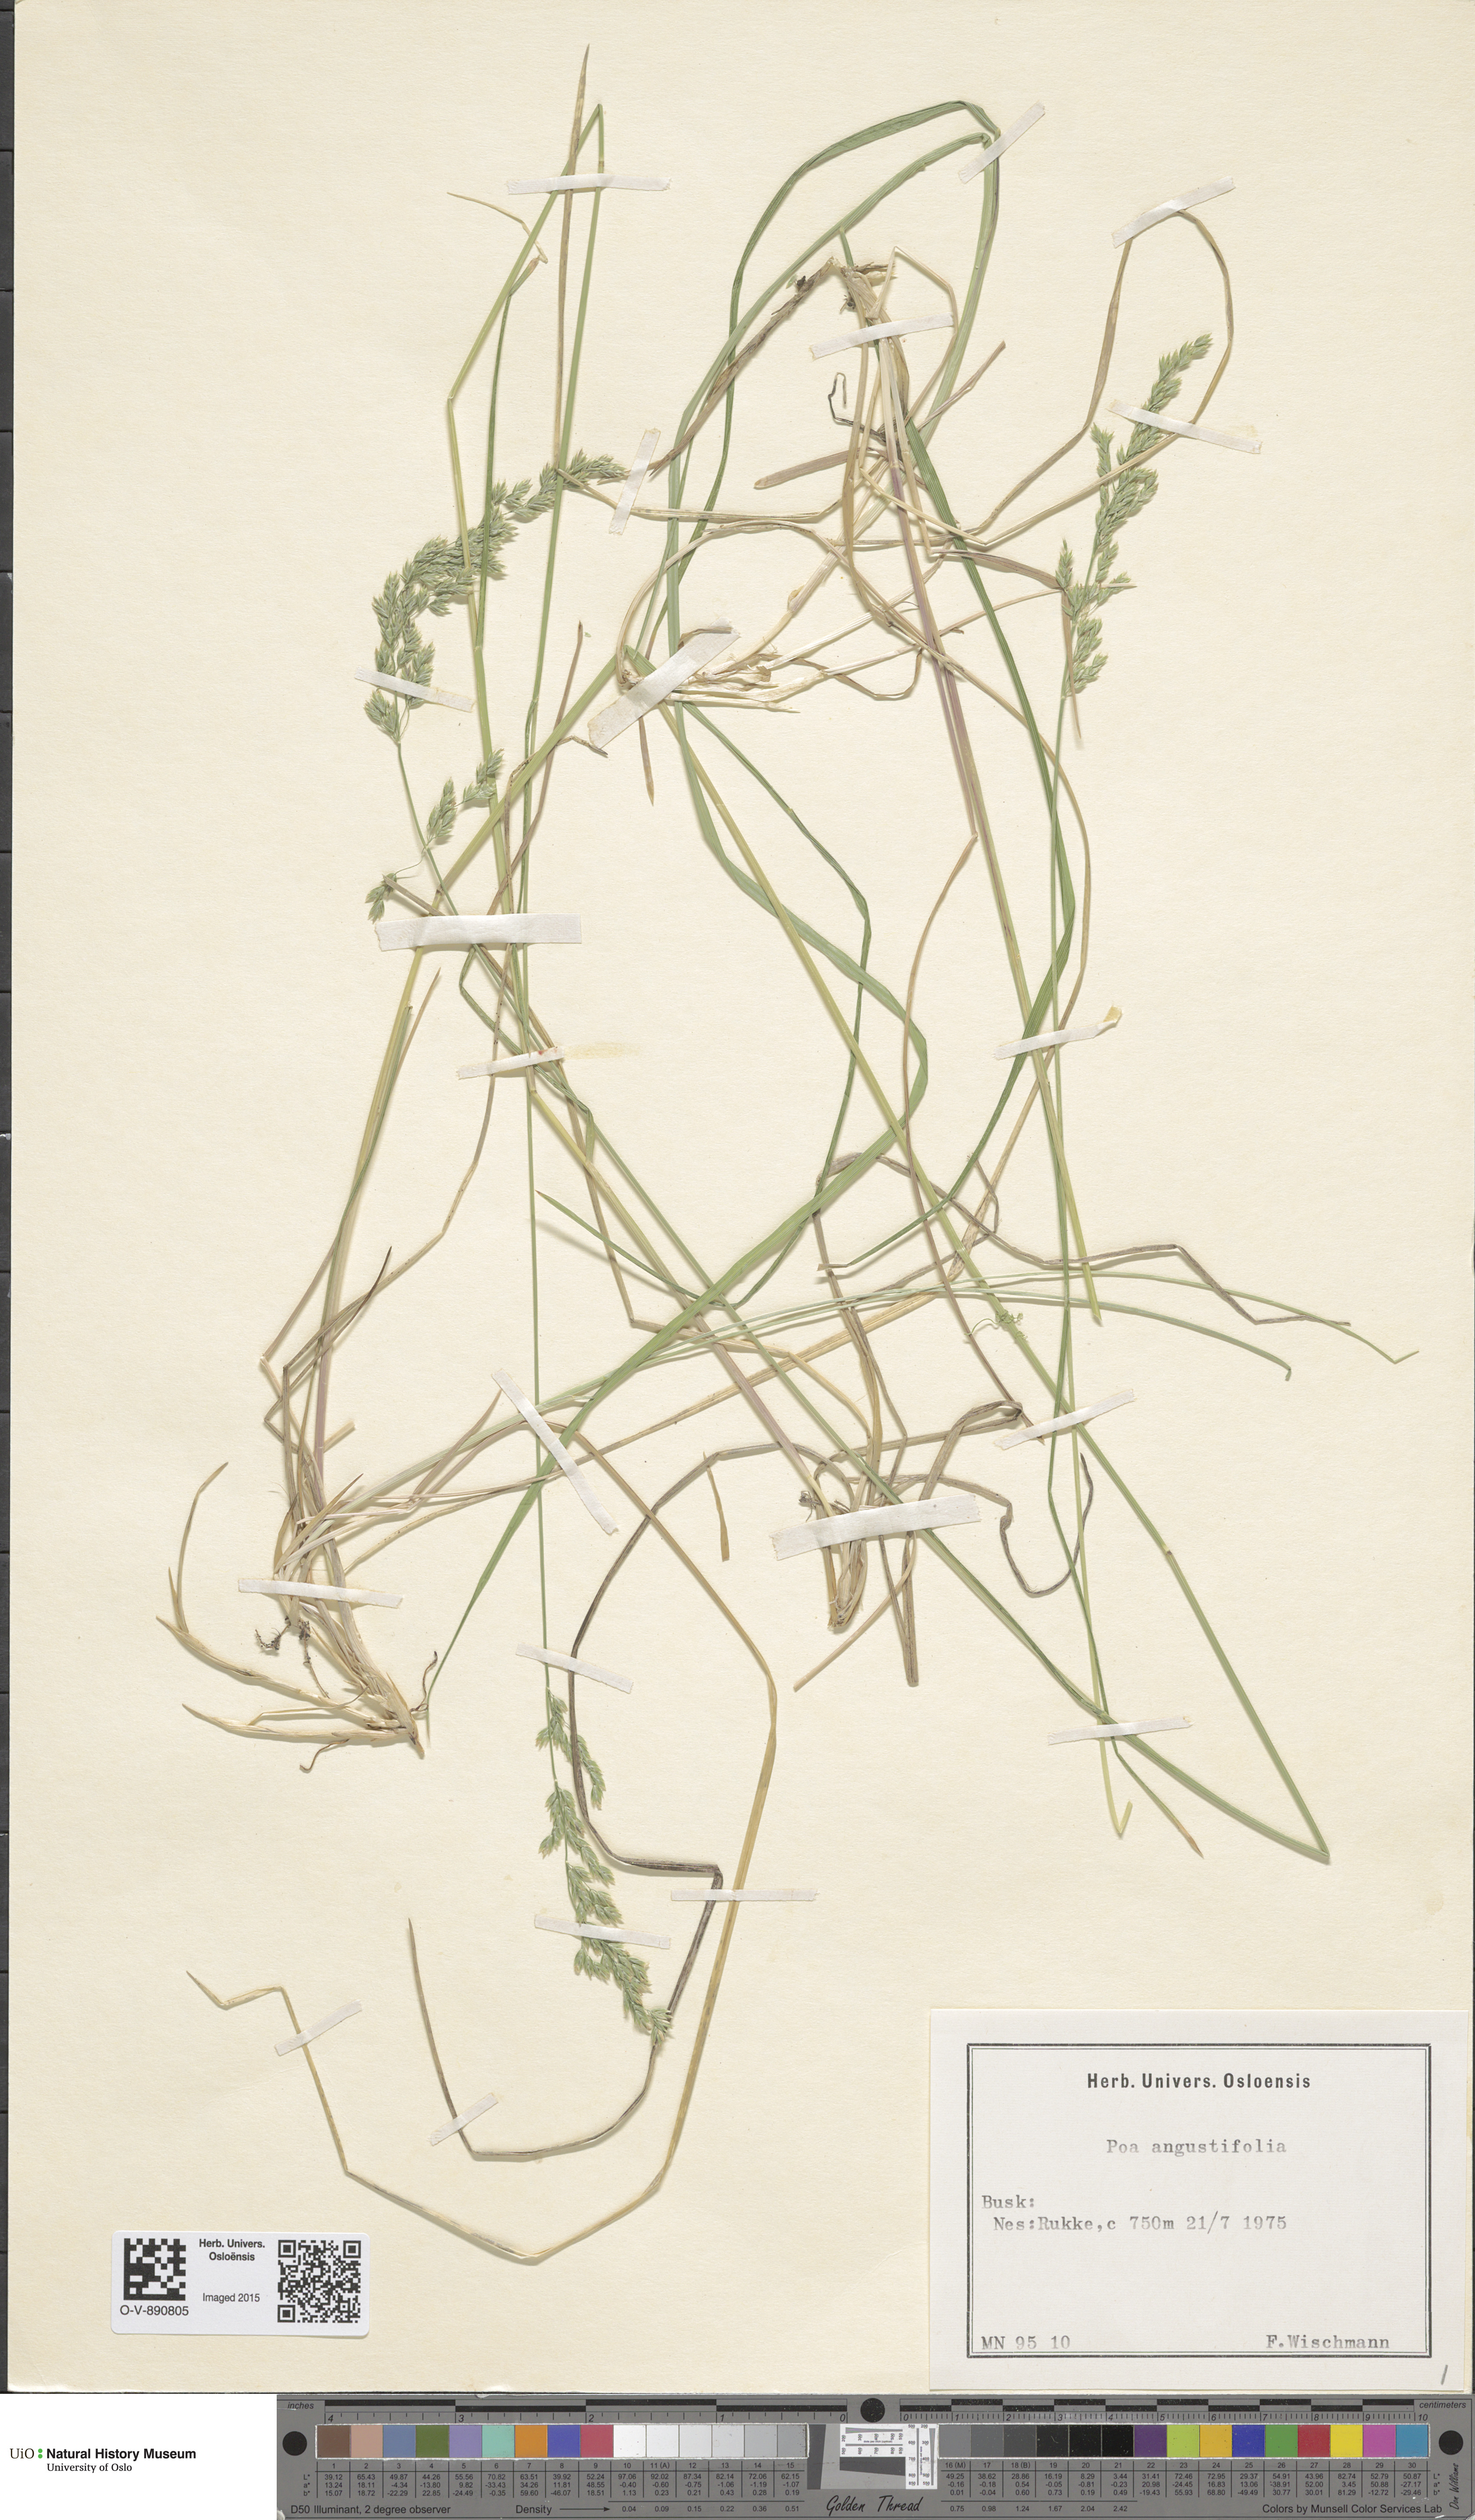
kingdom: Plantae
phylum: Tracheophyta
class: Liliopsida
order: Poales
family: Poaceae
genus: Poa
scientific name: Poa angustifolia
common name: Narrow-leaved meadow-grass
